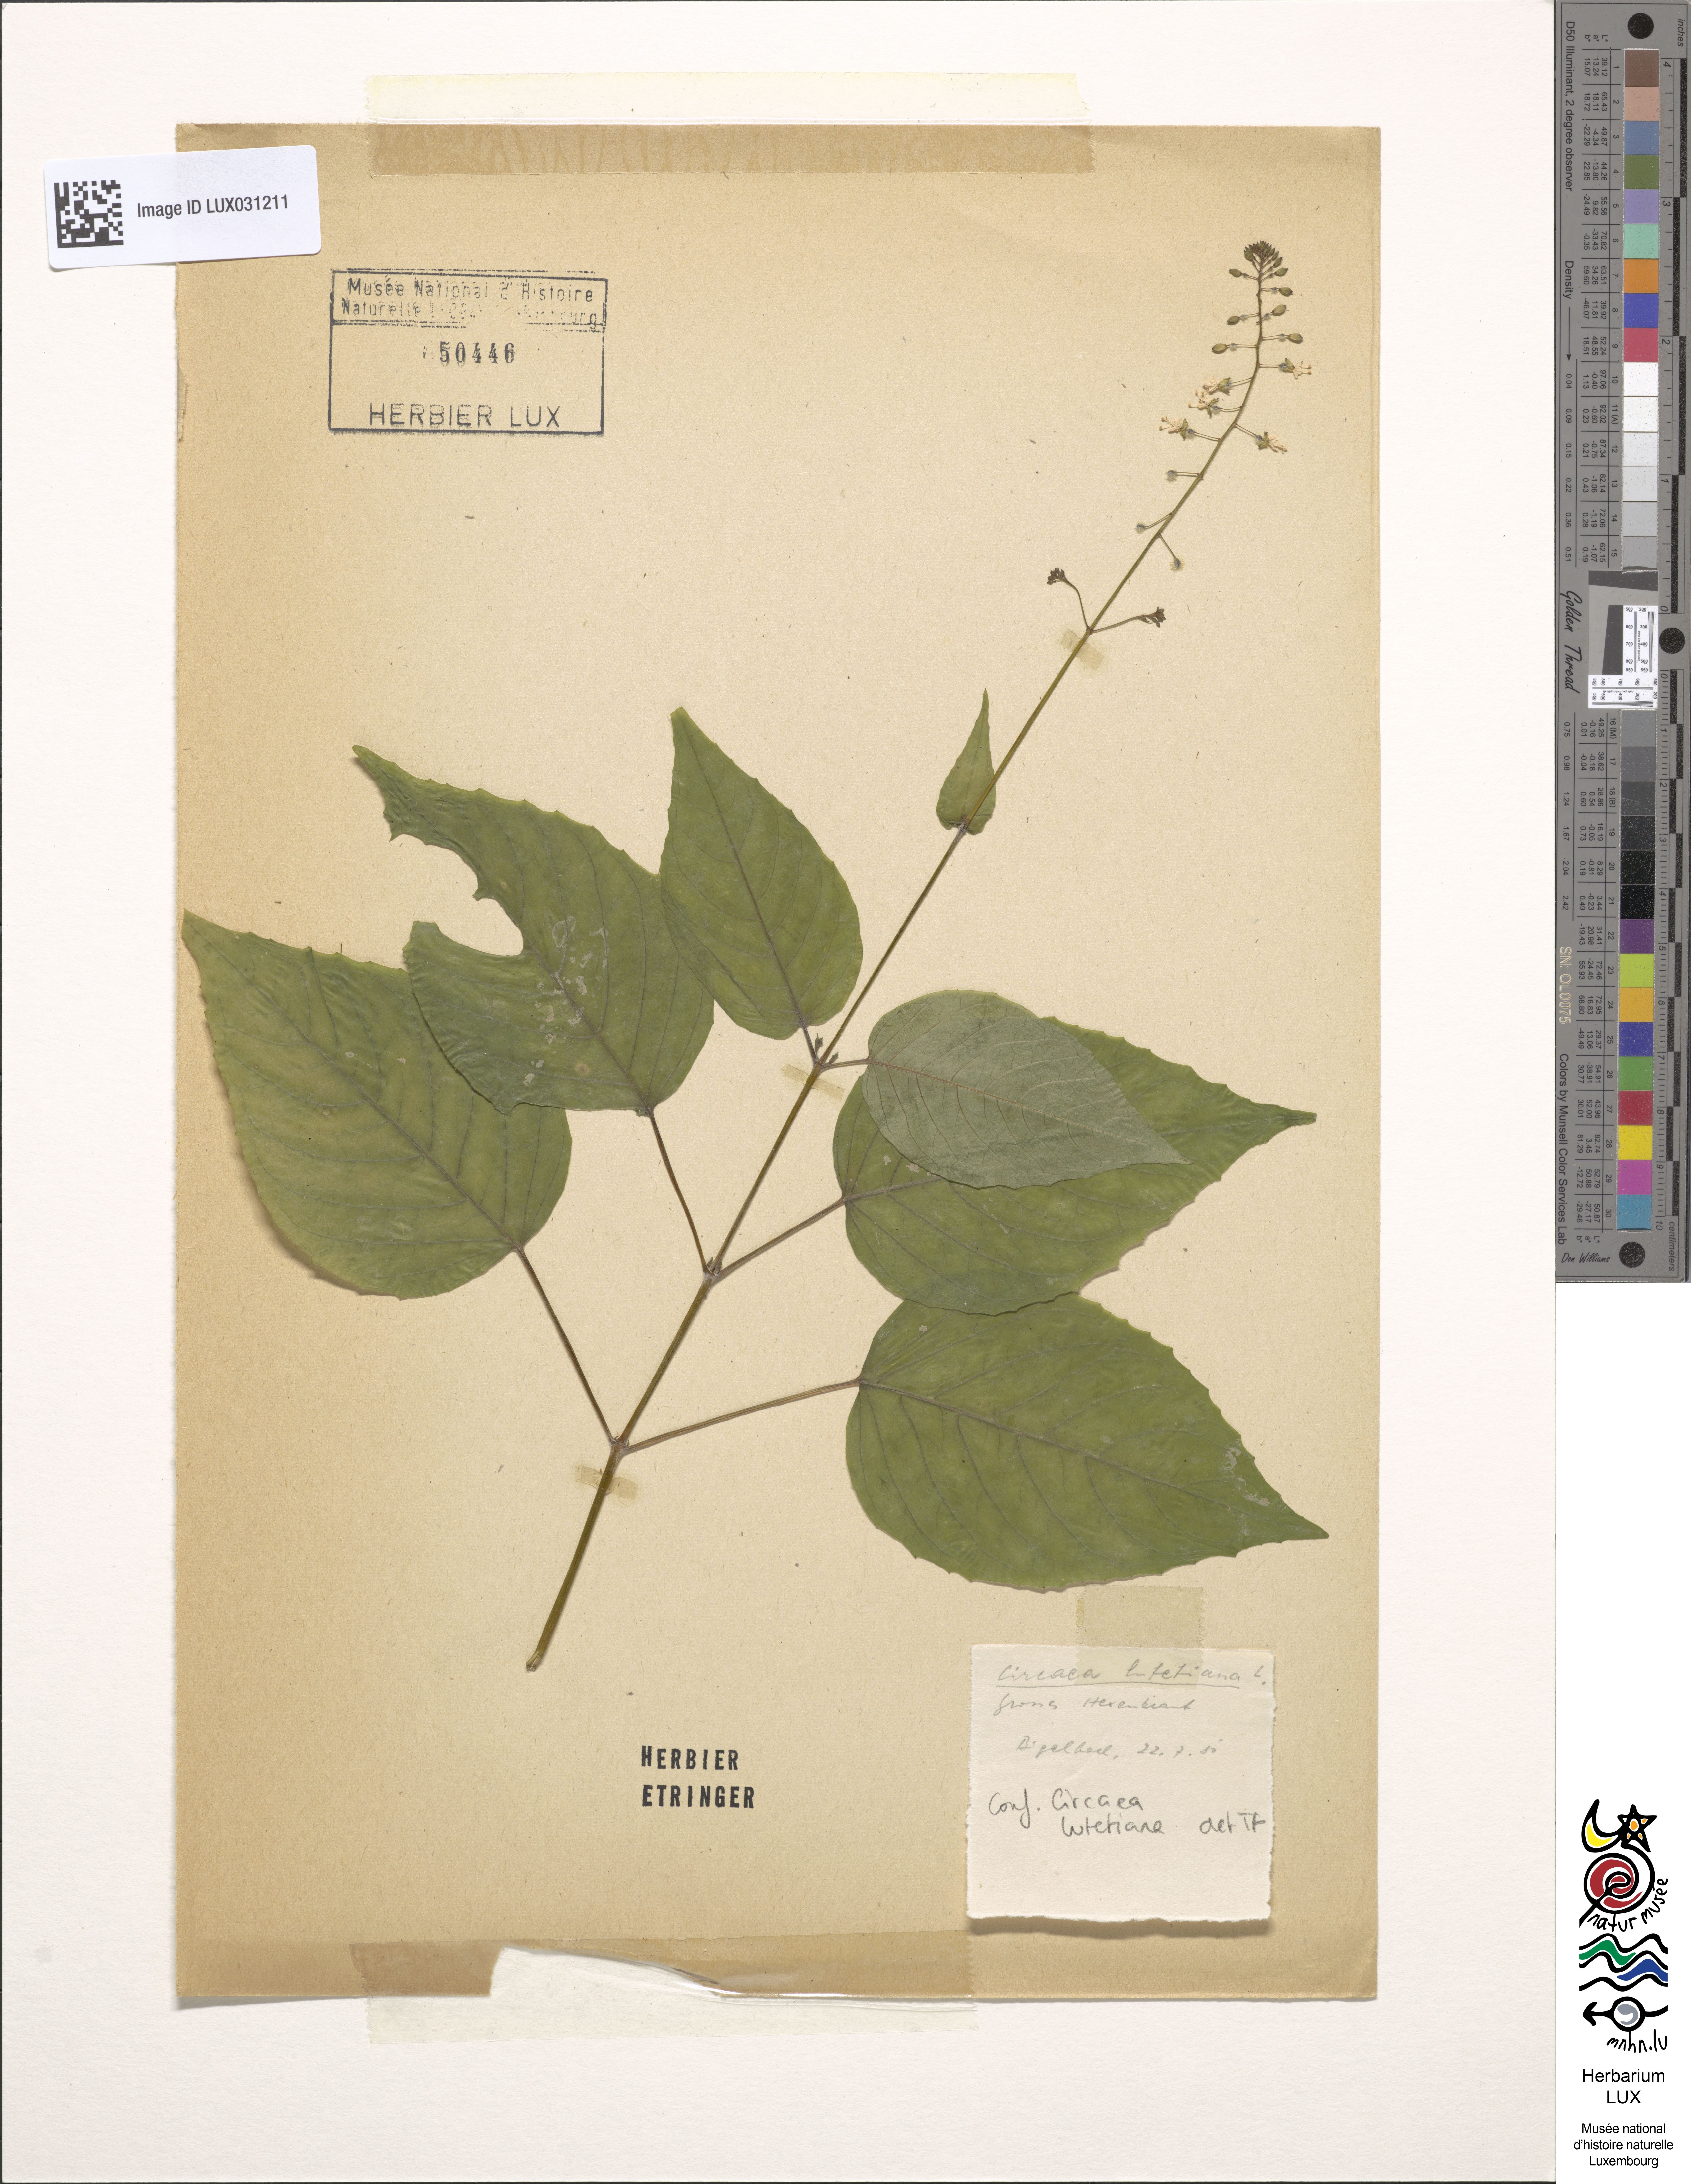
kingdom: Plantae
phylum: Tracheophyta
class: Magnoliopsida
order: Myrtales
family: Onagraceae
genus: Circaea
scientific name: Circaea lutetiana
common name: Enchanter's-nightshade
